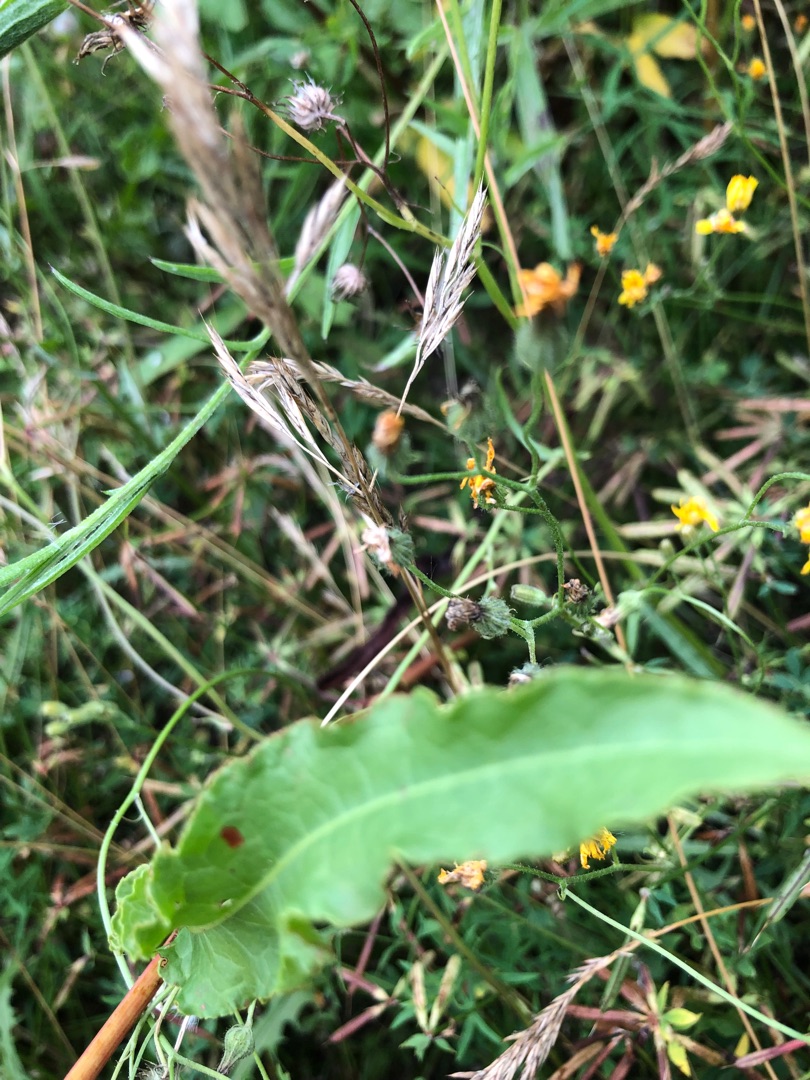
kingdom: Plantae
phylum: Tracheophyta
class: Magnoliopsida
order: Caryophyllales
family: Polygonaceae
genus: Rumex
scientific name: Rumex crispus
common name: Kruset skræppe
